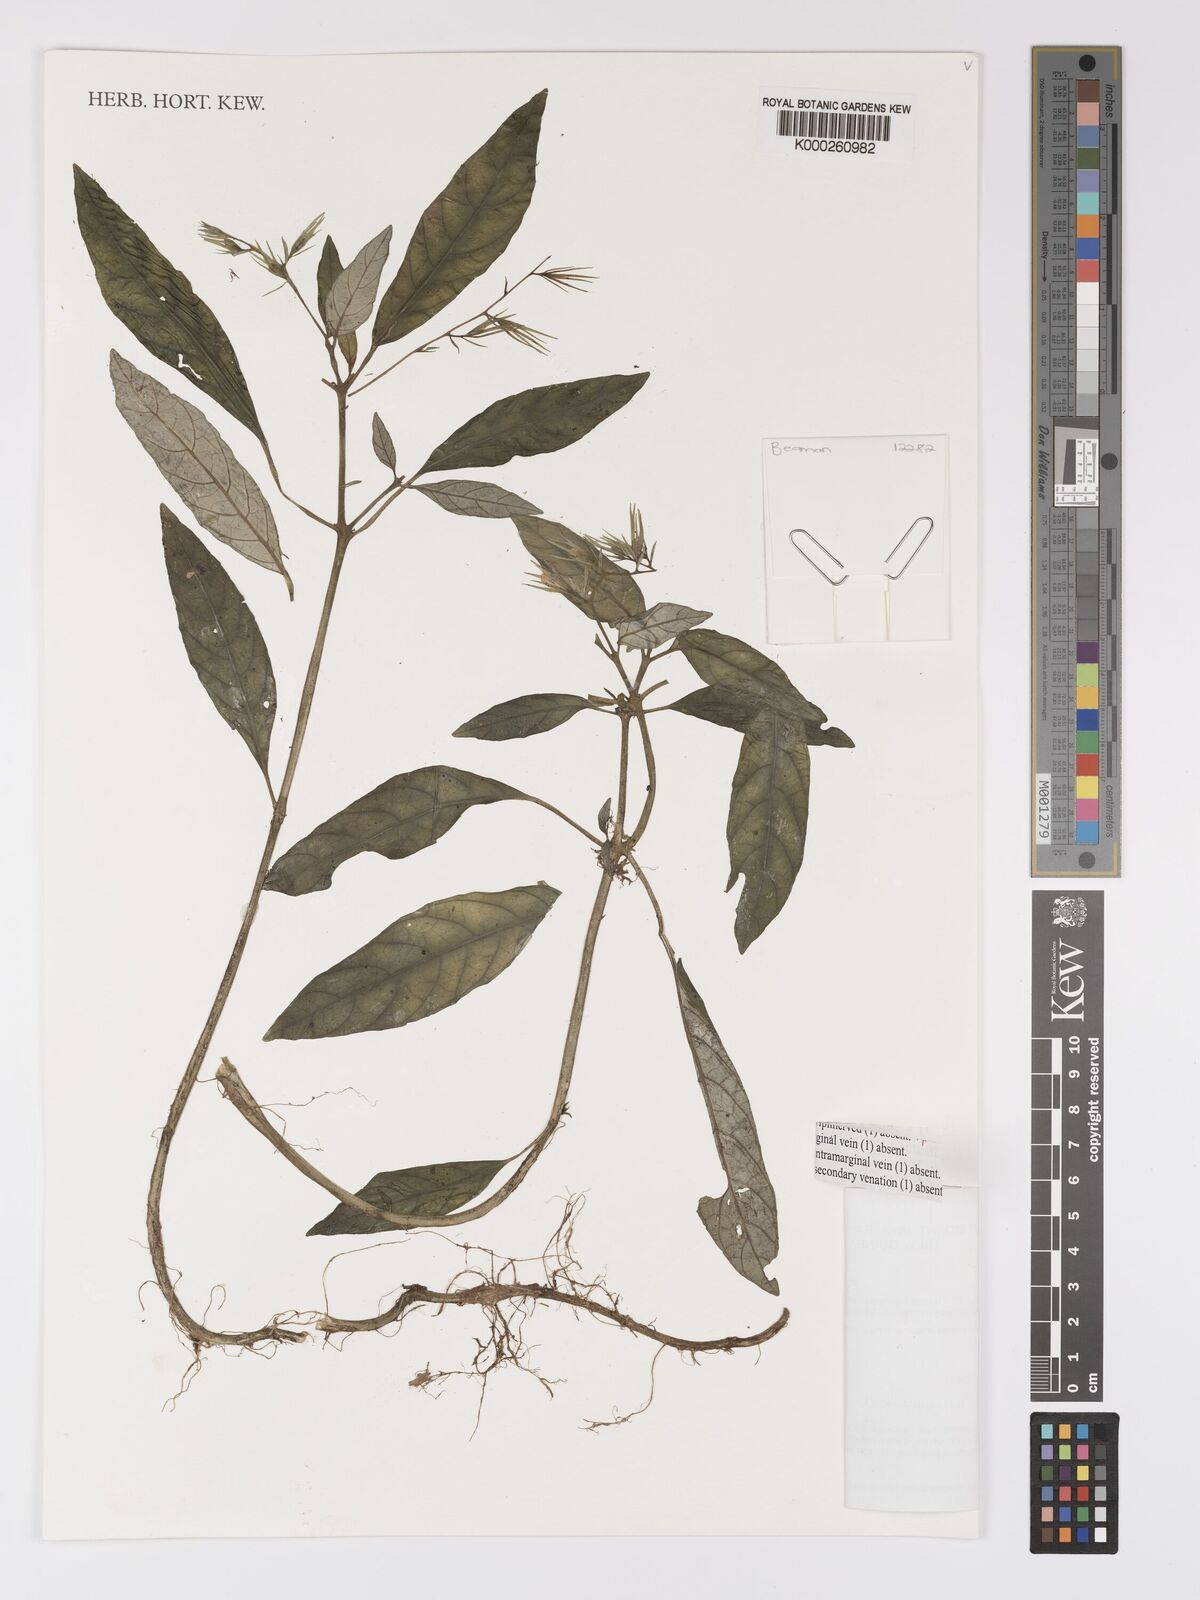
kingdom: Plantae
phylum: Tracheophyta
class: Magnoliopsida
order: Lamiales
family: Acanthaceae
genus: Staurogyne
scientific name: Staurogyne papuana
